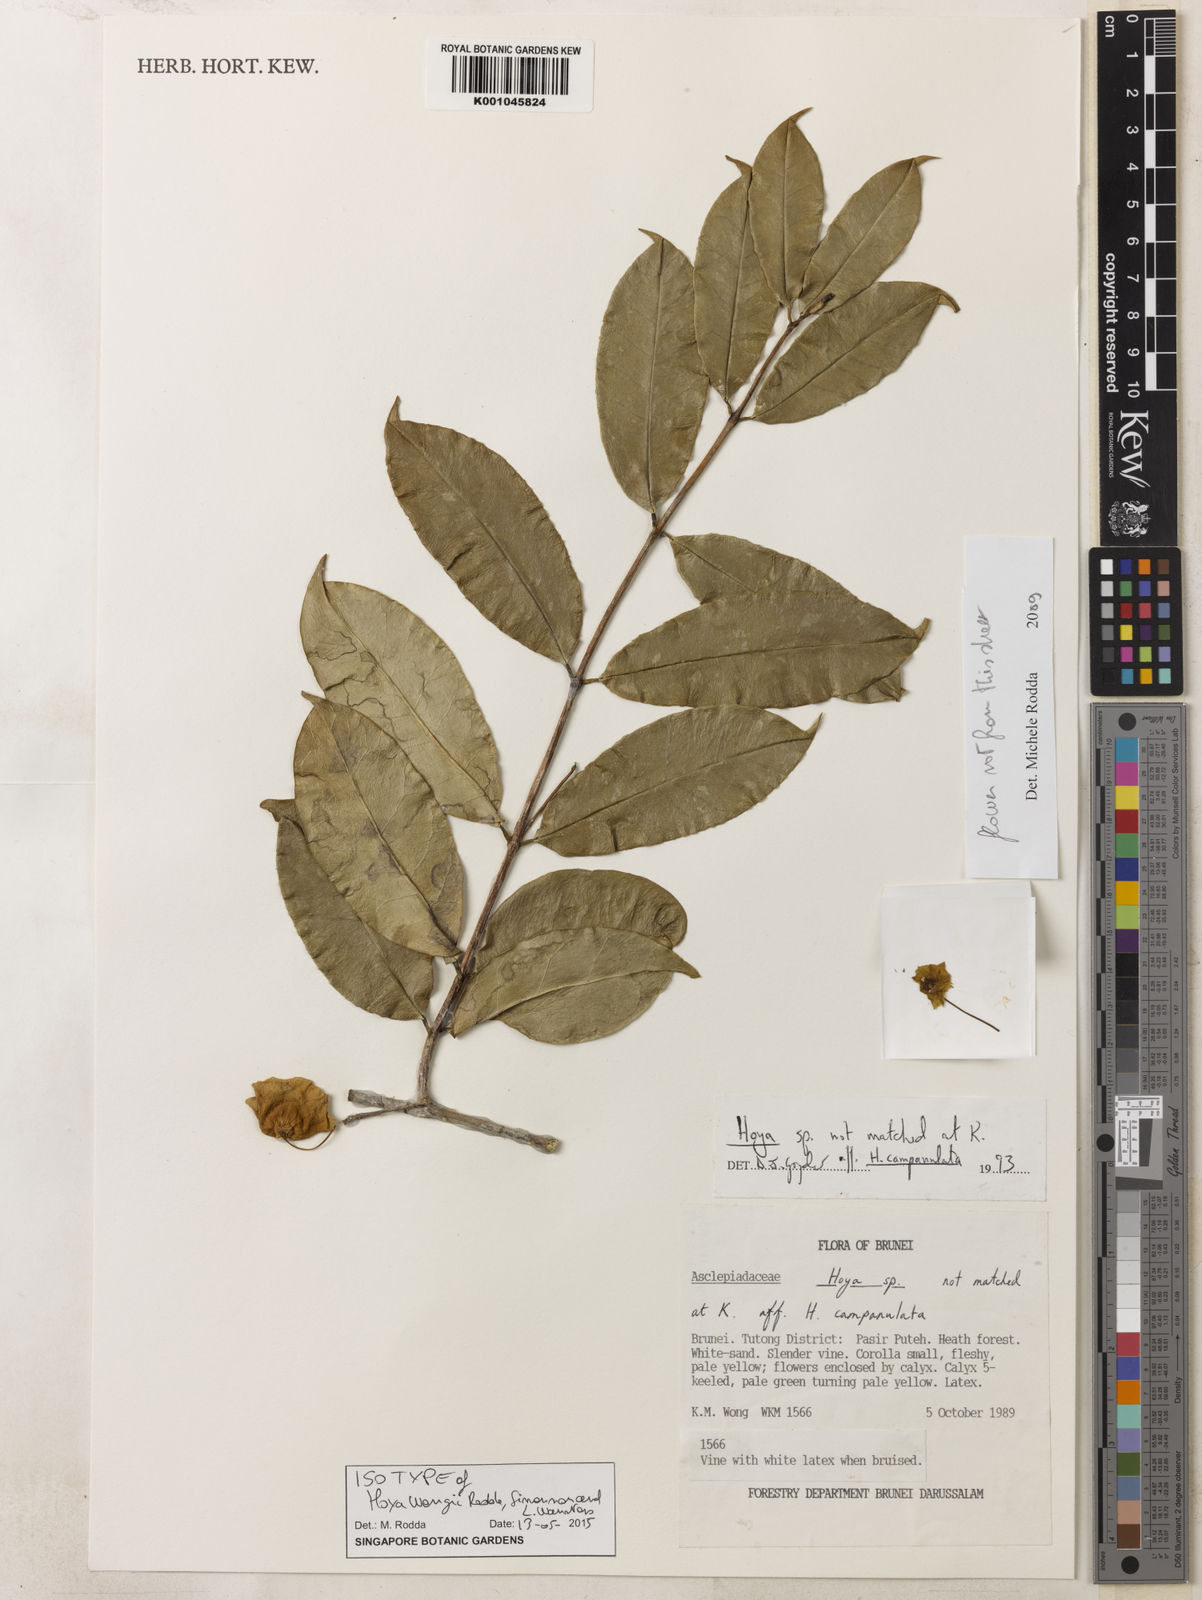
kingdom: Plantae
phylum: Tracheophyta
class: Magnoliopsida
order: Gentianales
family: Apocynaceae
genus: Hoya
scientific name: Hoya wongii
